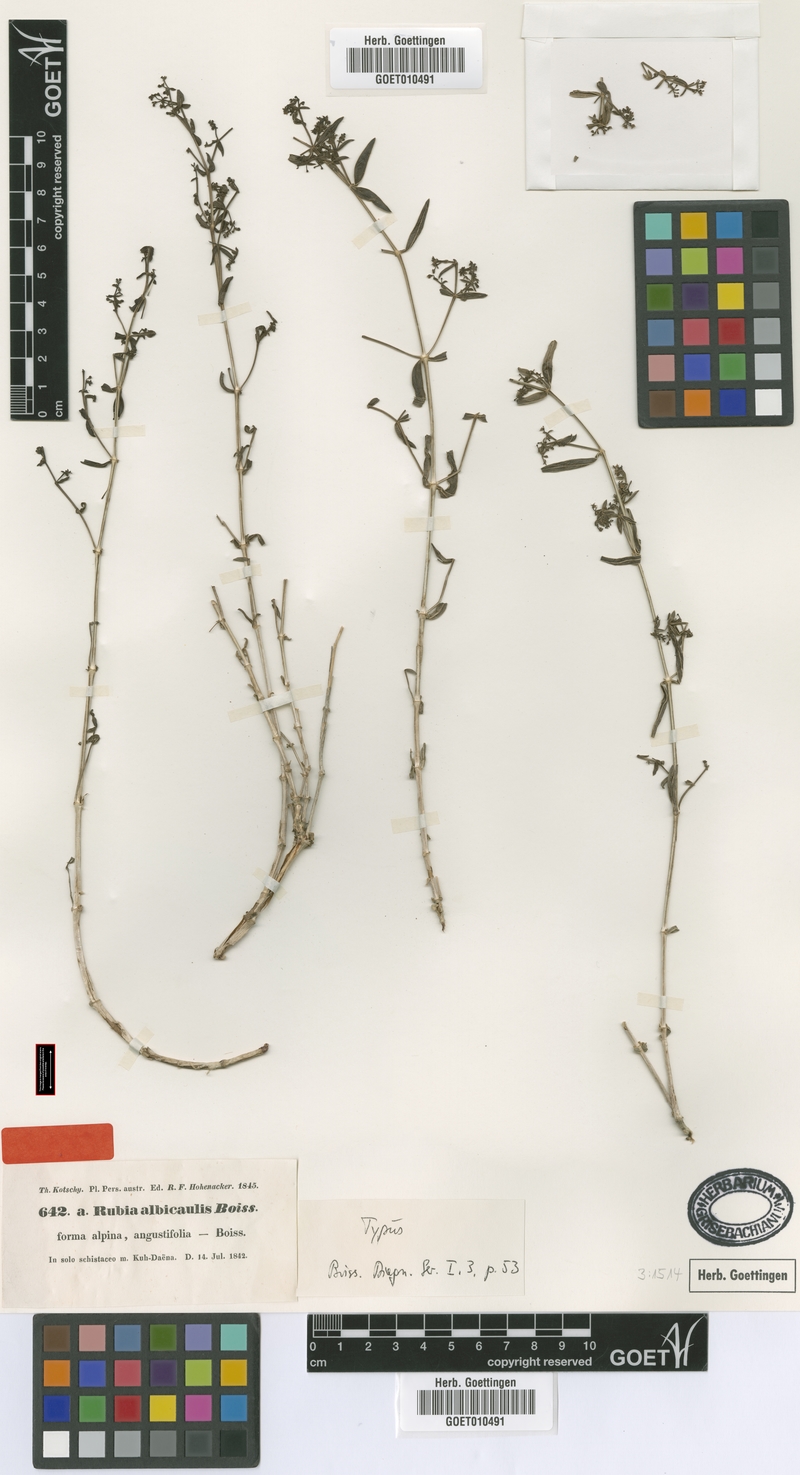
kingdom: Plantae
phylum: Tracheophyta
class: Magnoliopsida
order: Gentianales
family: Rubiaceae
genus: Rubia
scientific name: Rubia albicaulis
